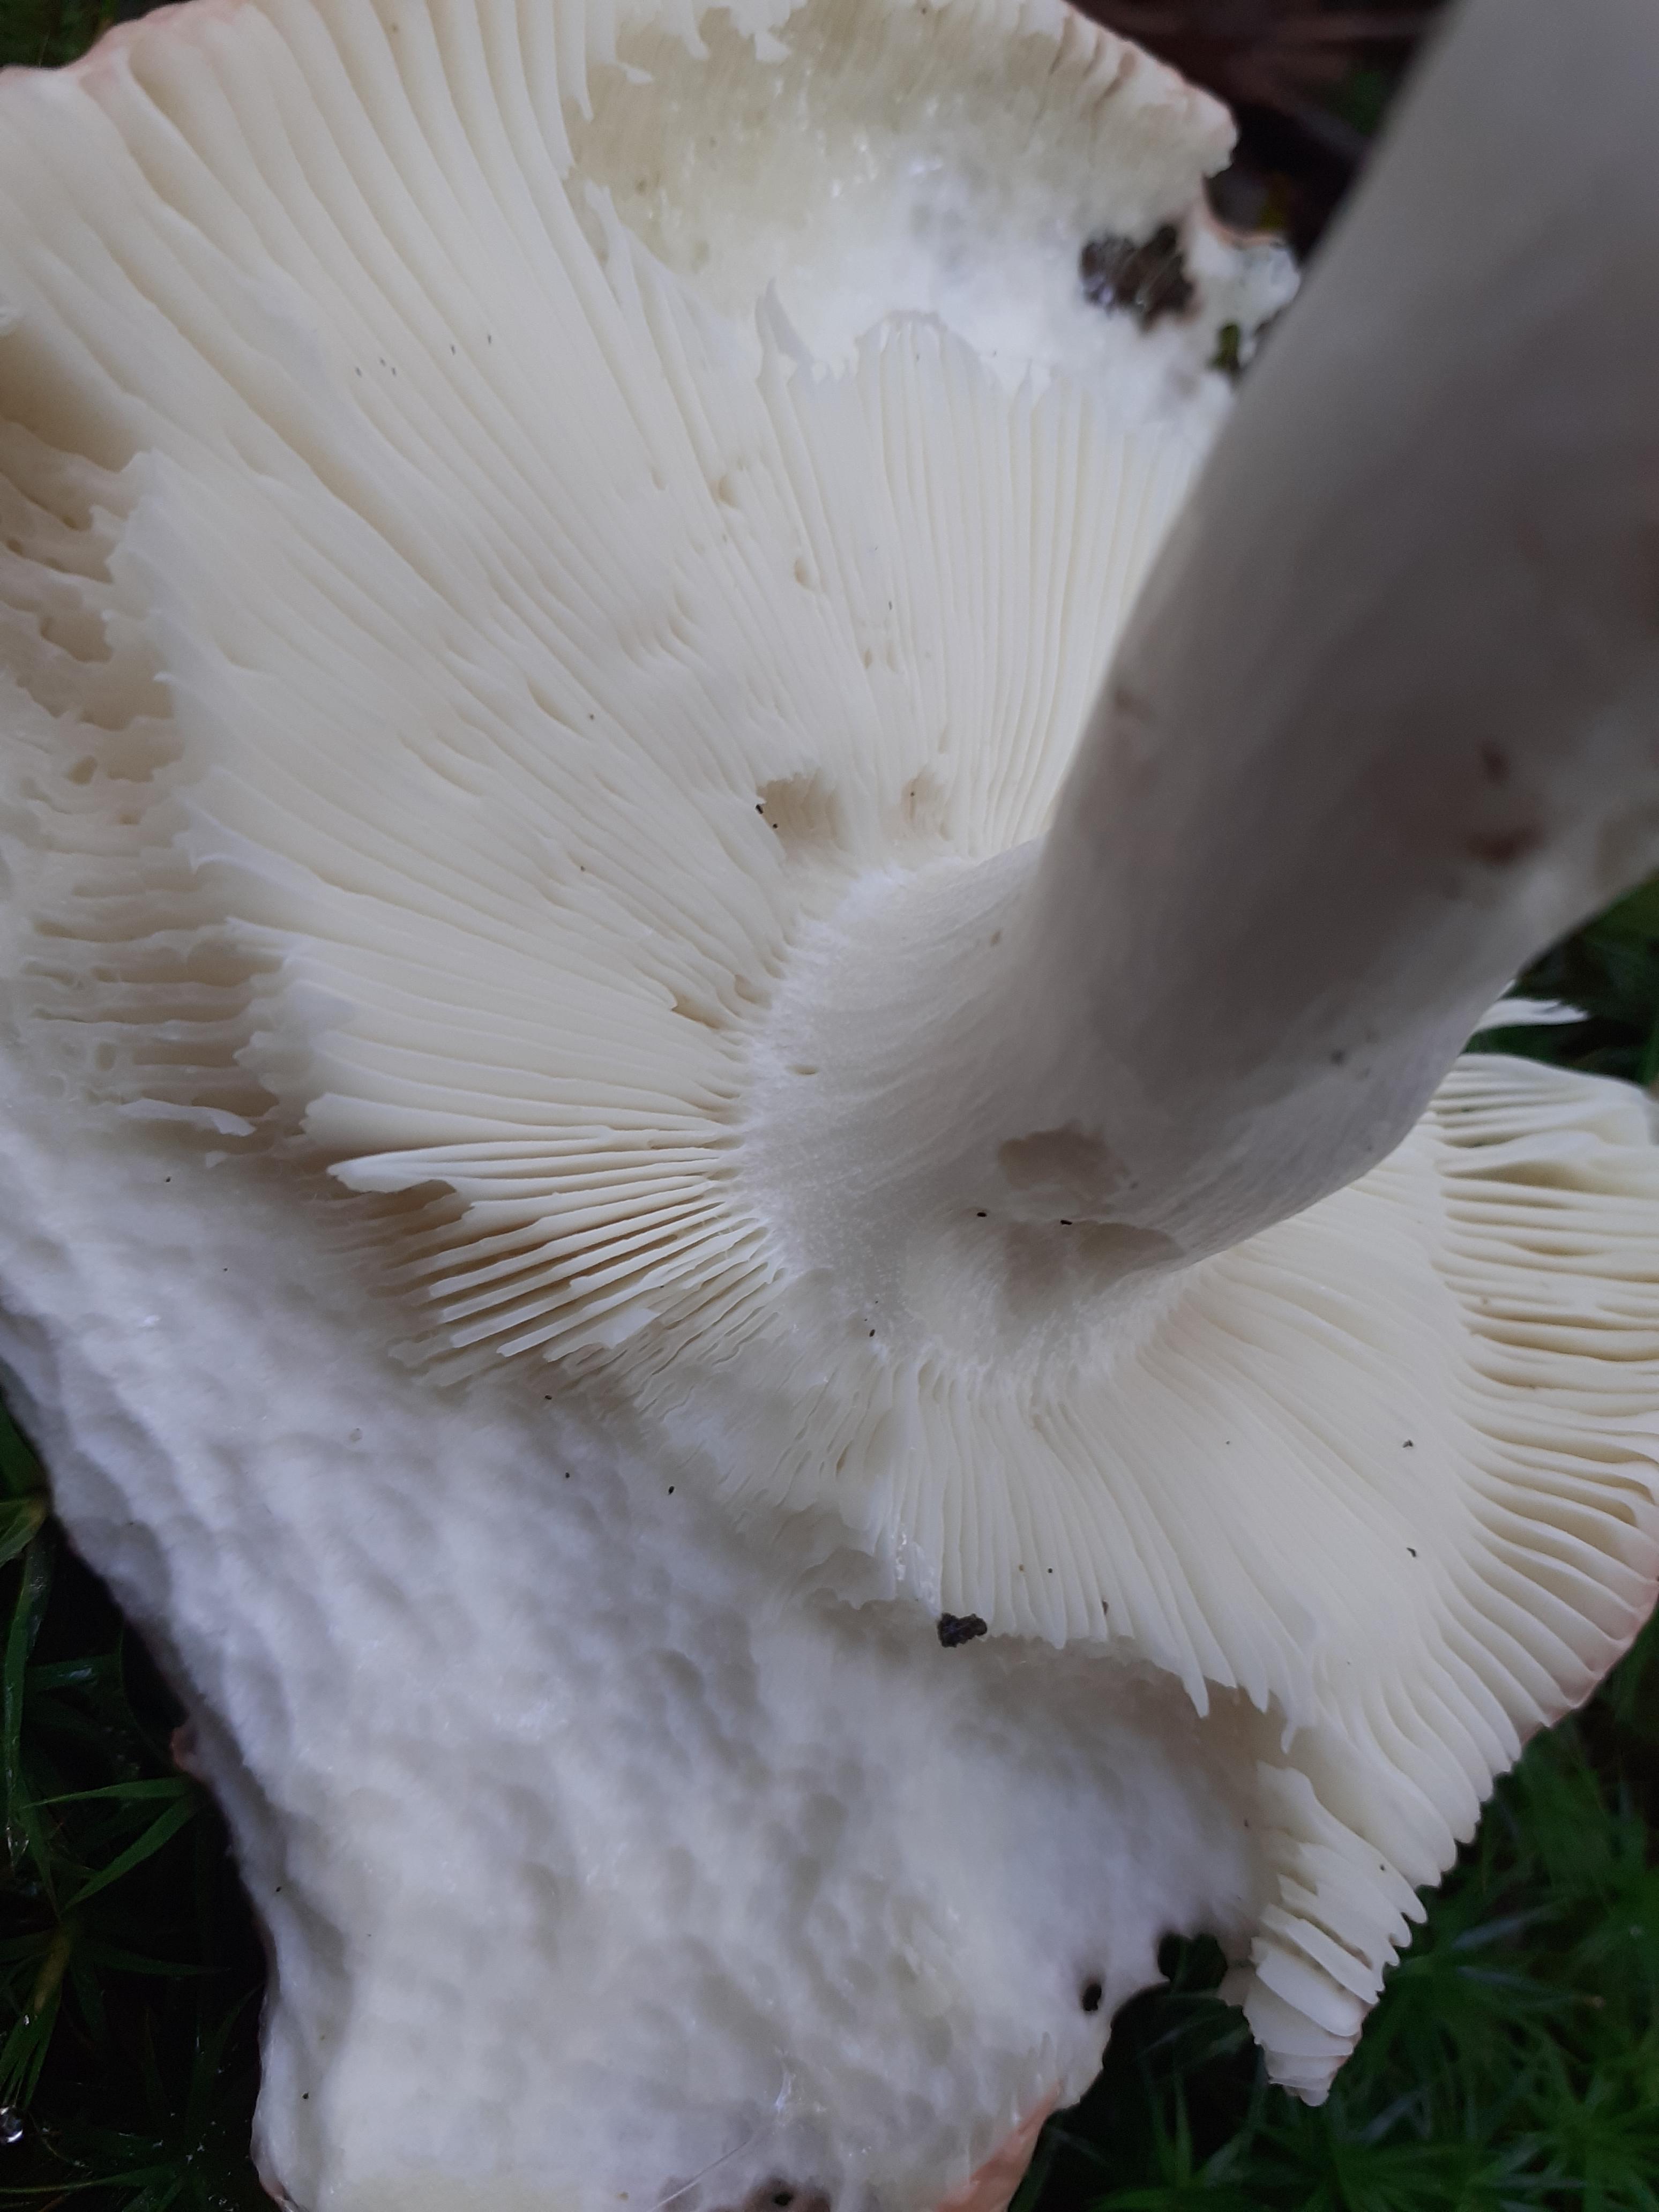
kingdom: Fungi
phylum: Basidiomycota
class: Agaricomycetes
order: Russulales
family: Russulaceae
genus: Russula
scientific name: Russula aurora
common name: rosa skørhat
